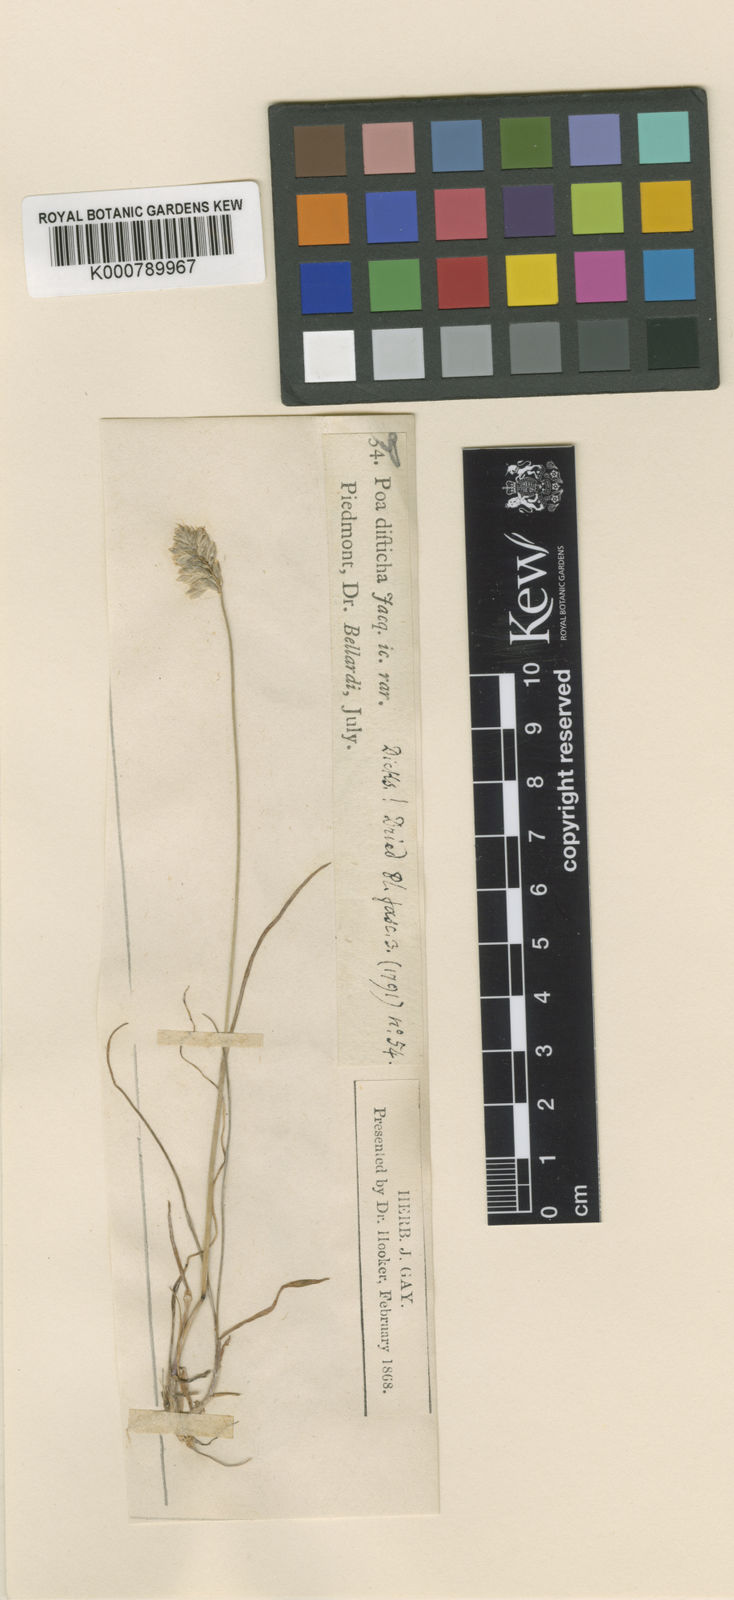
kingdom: Plantae
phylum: Tracheophyta
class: Liliopsida
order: Poales
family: Poaceae
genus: Oreochloa
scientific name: Oreochloa seslerioides
